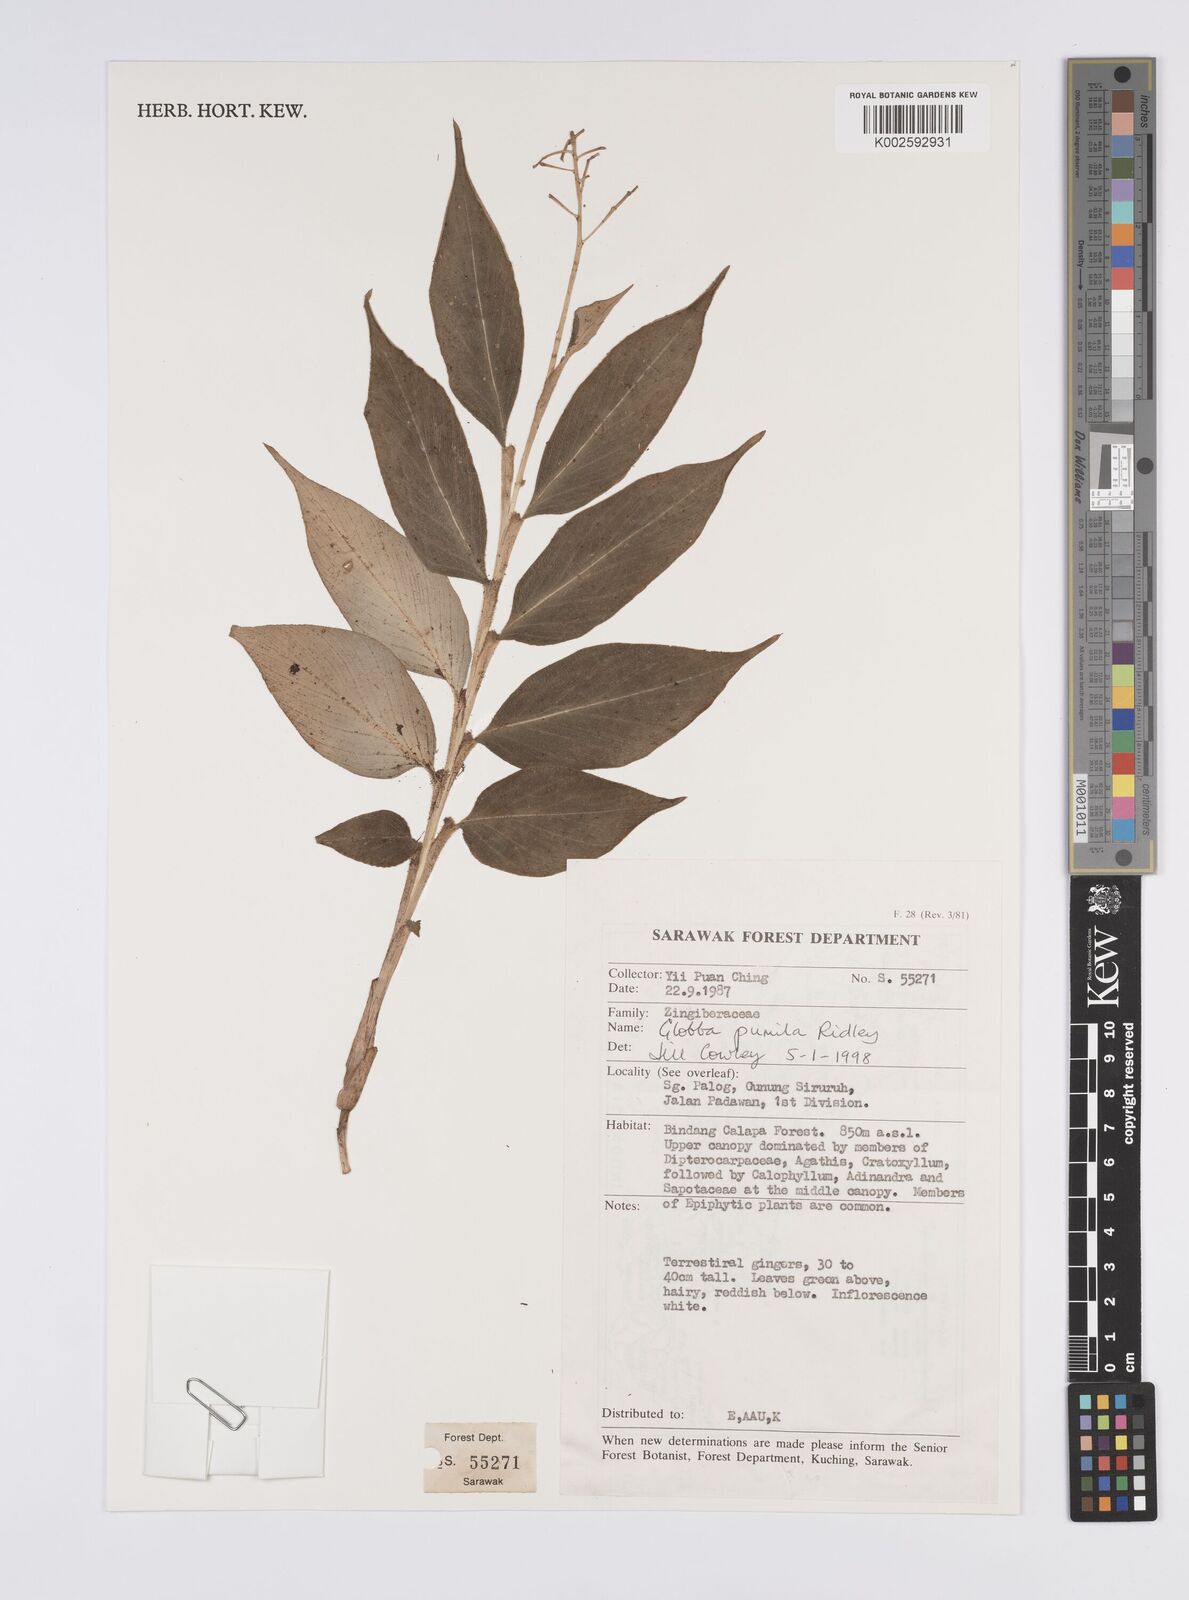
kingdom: Plantae
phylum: Tracheophyta
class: Liliopsida
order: Zingiberales
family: Zingiberaceae
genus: Globba
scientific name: Globba pumila
